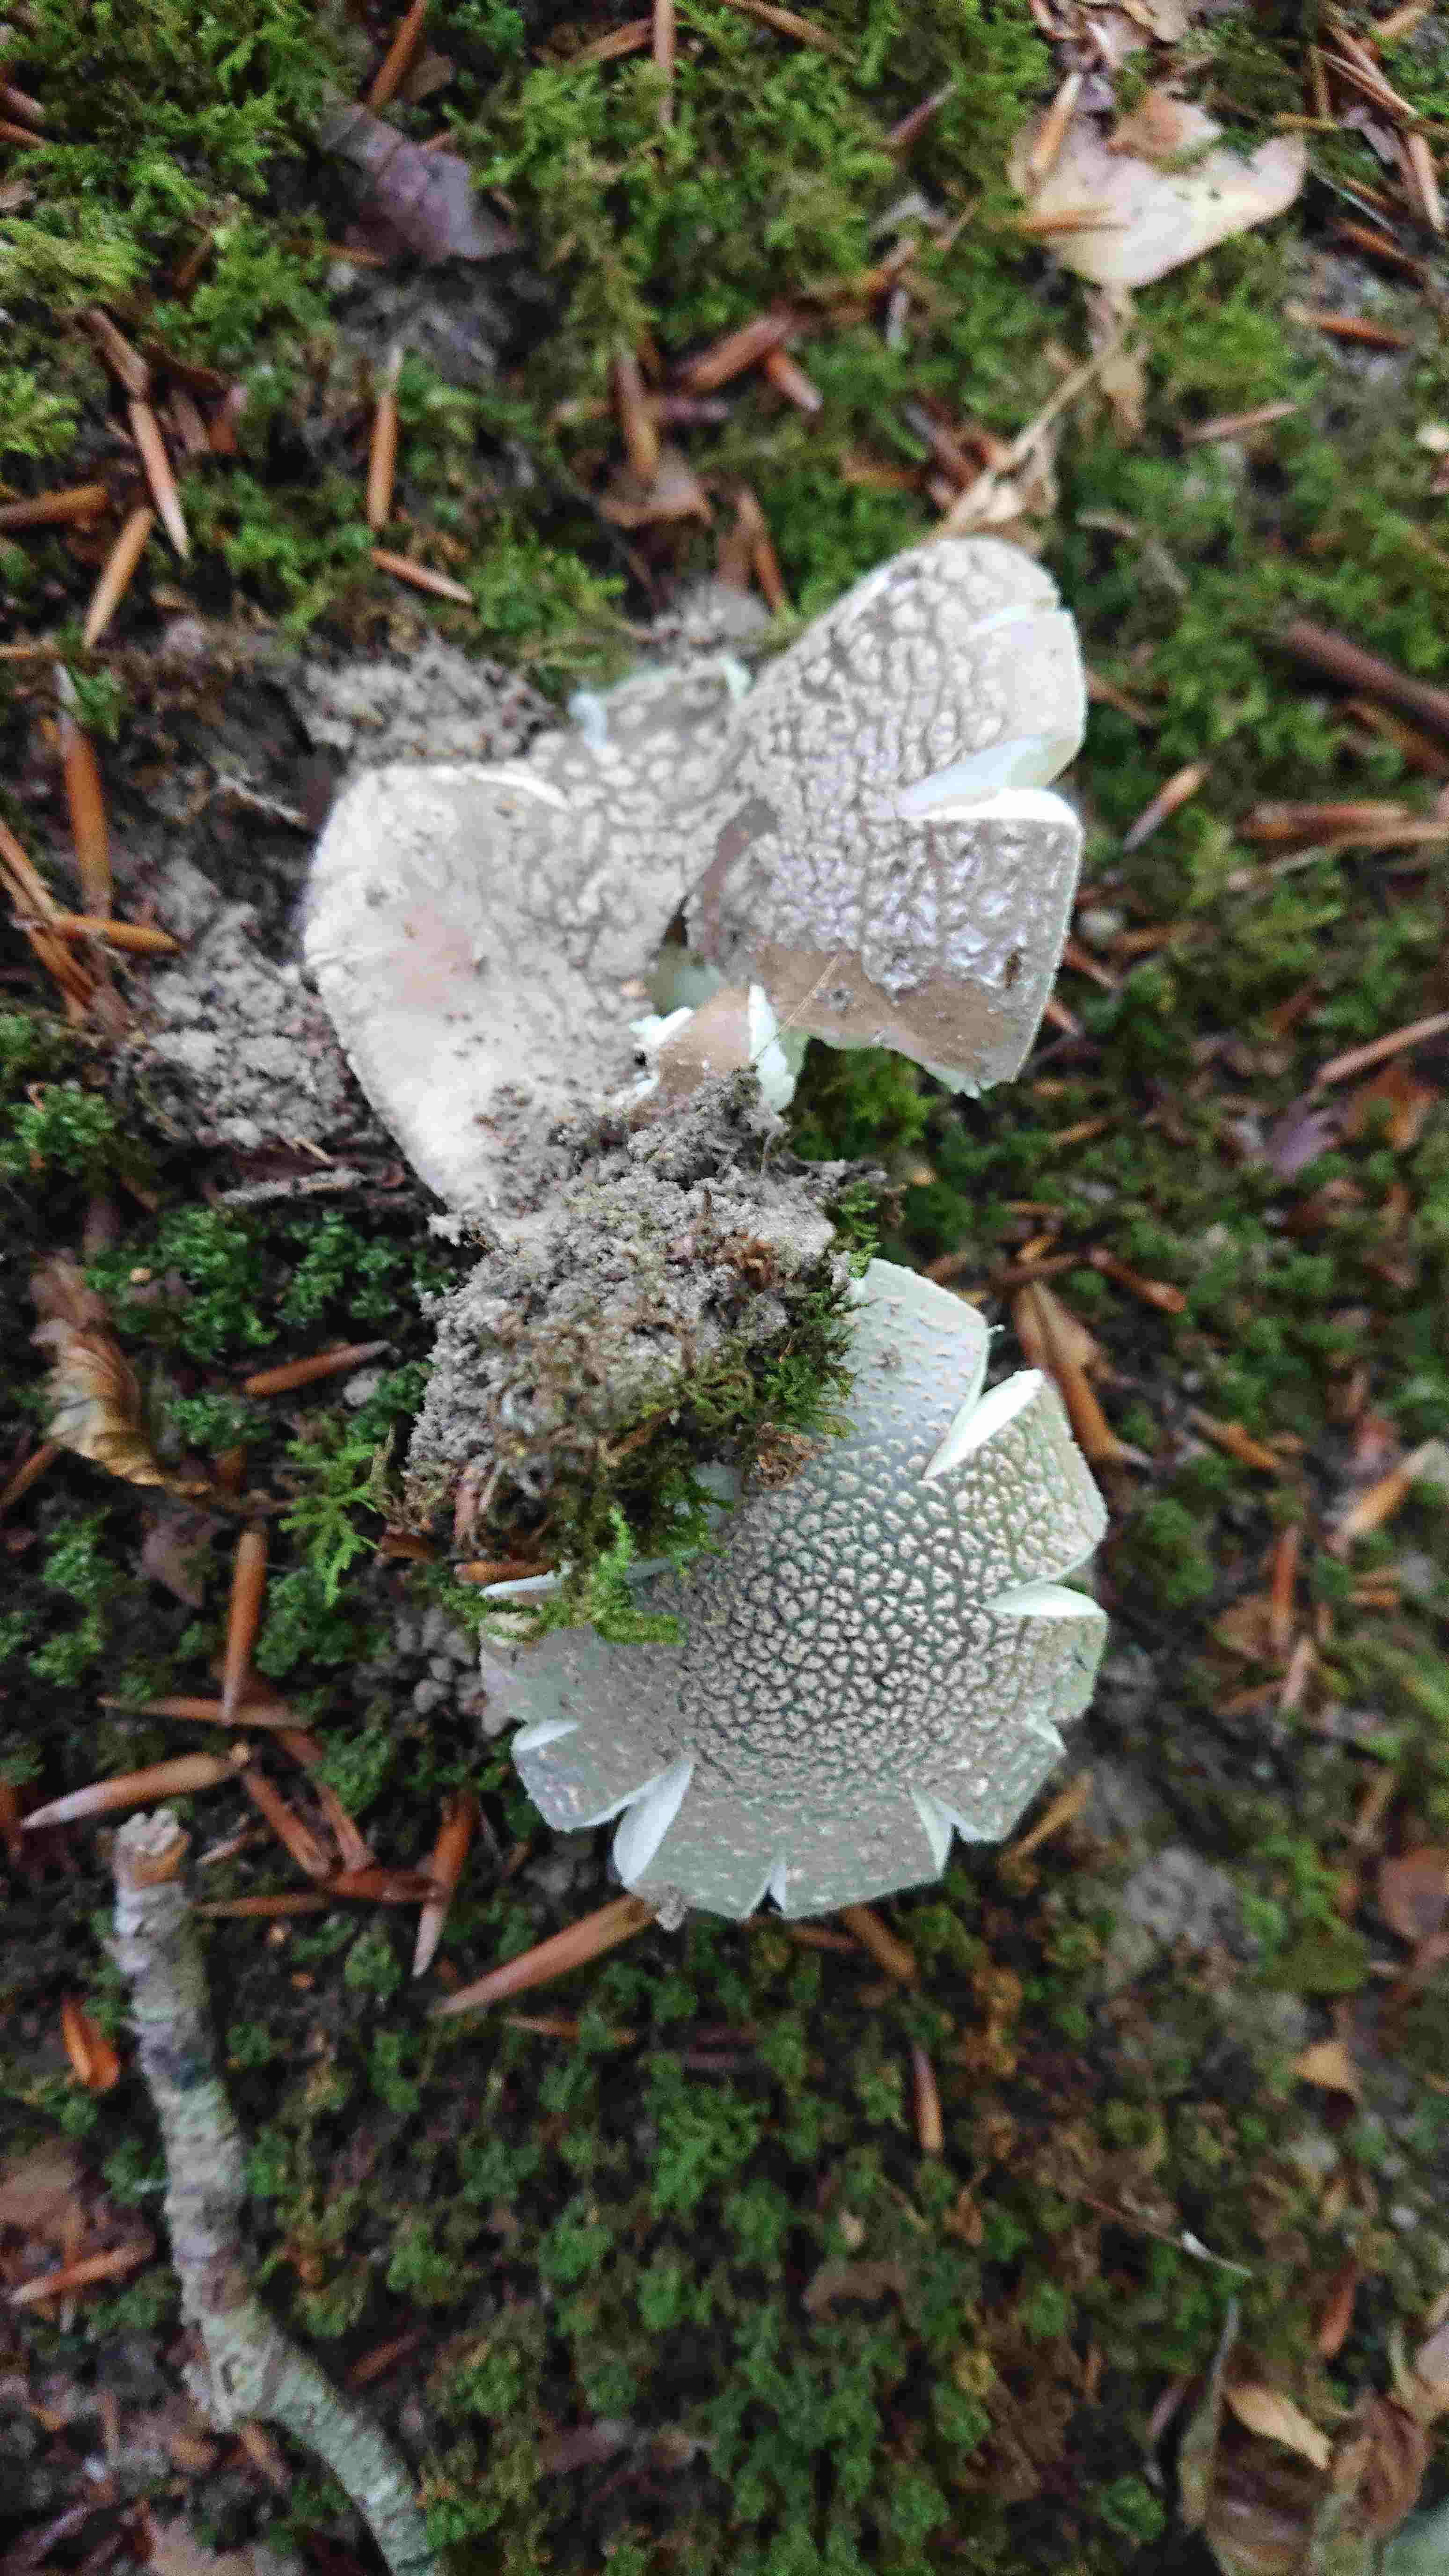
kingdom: Fungi
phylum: Basidiomycota
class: Agaricomycetes
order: Agaricales
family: Amanitaceae
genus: Amanita
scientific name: Amanita rubescens
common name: rødmende fluesvamp
